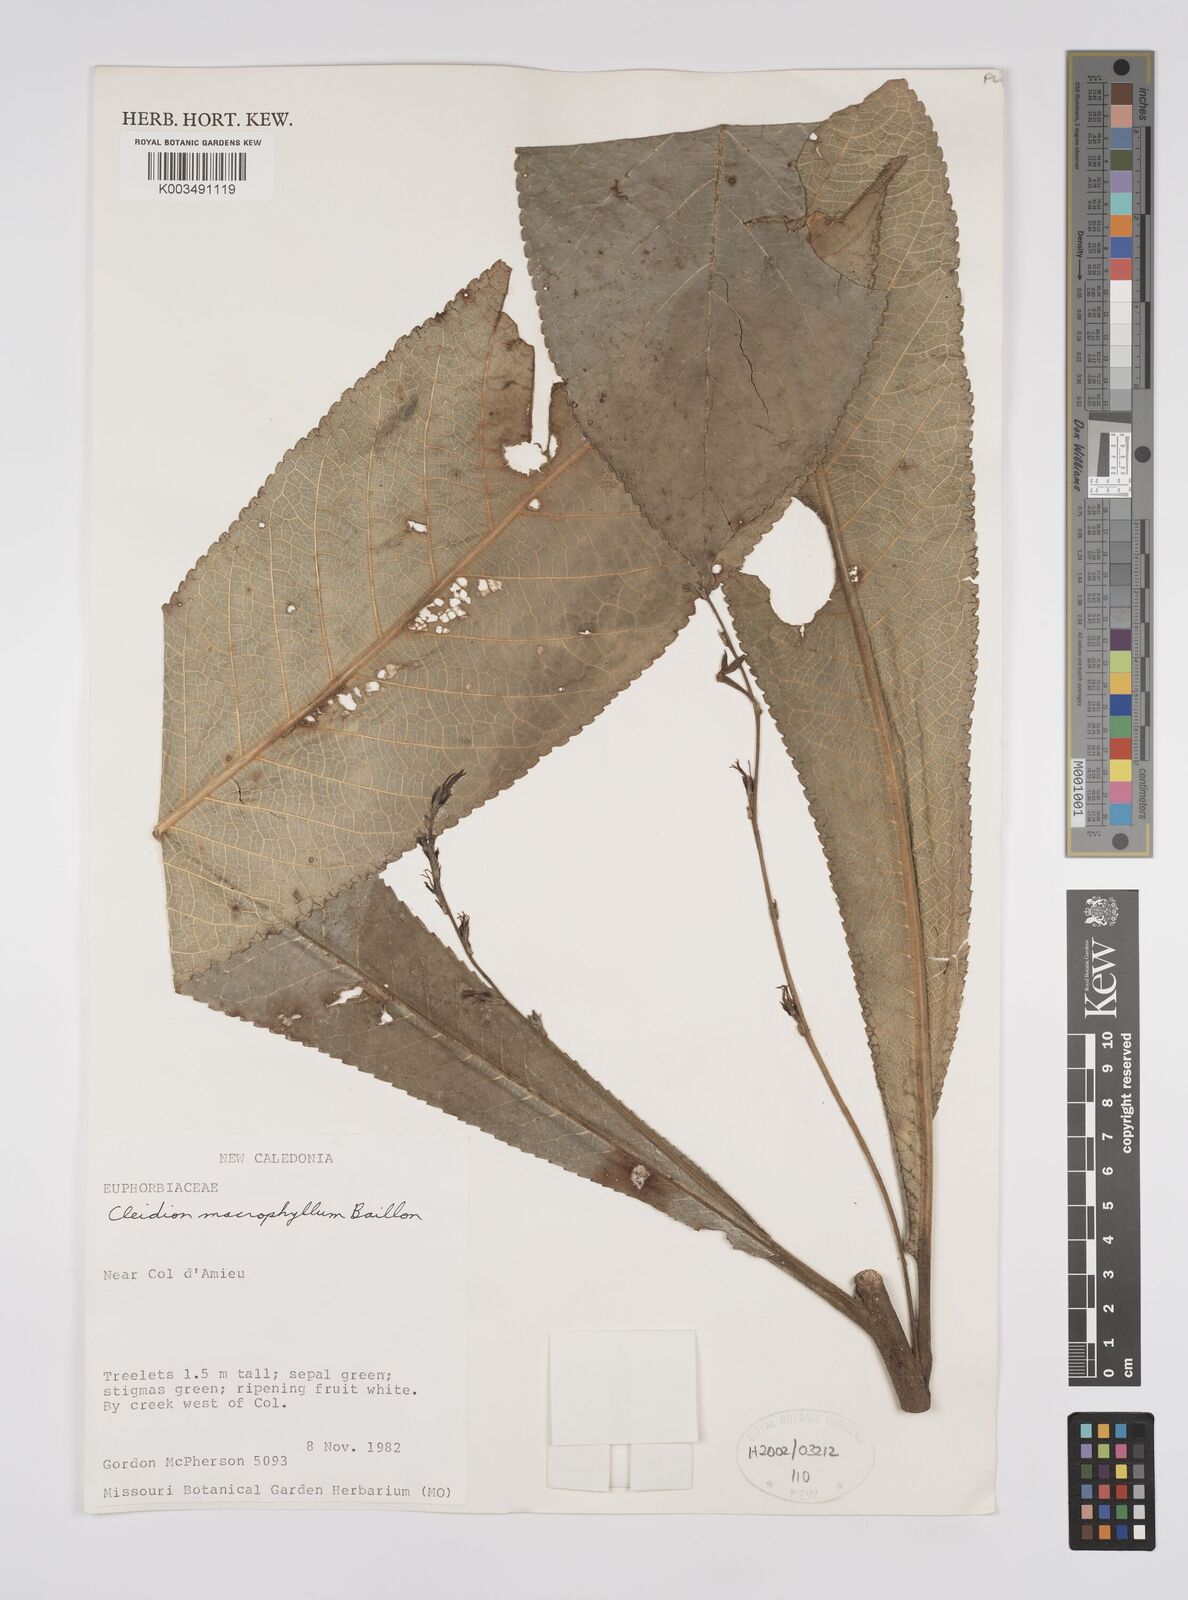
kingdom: Plantae
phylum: Tracheophyta
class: Magnoliopsida
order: Malpighiales
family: Euphorbiaceae
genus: Cleidion
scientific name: Cleidion macrophyllum
